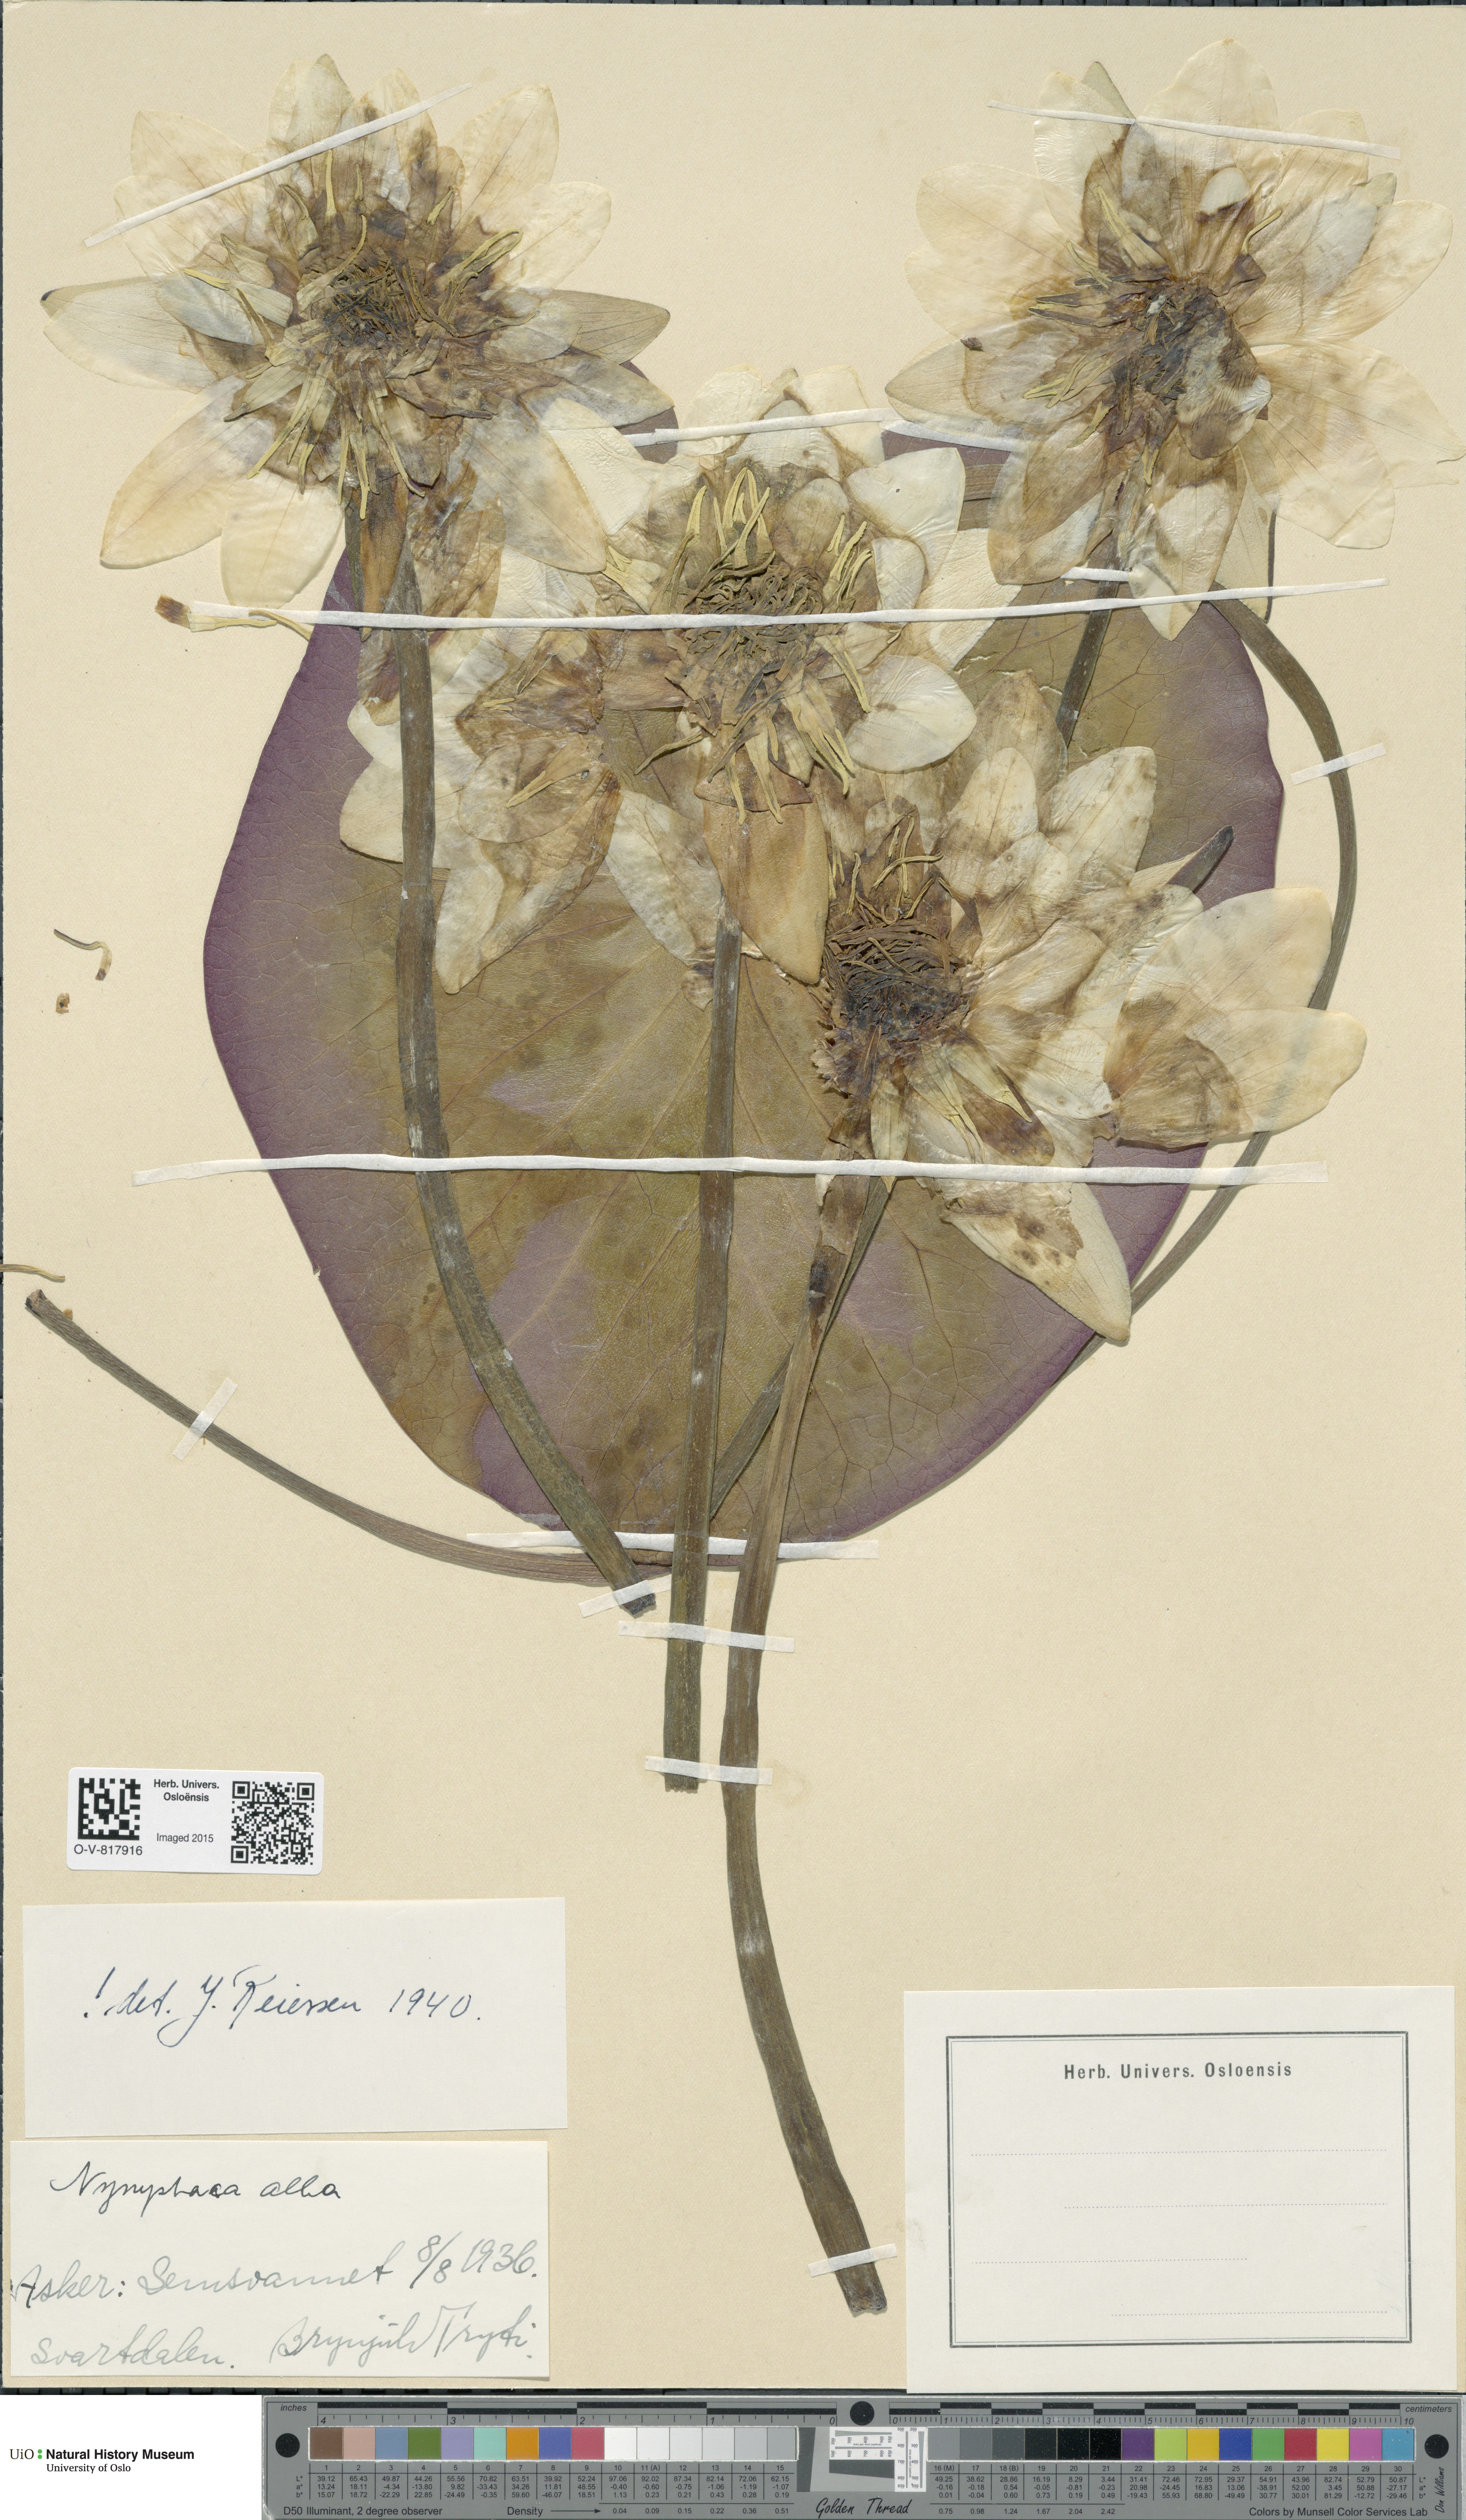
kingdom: Plantae
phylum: Tracheophyta
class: Magnoliopsida
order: Nymphaeales
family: Nymphaeaceae
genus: Nymphaea
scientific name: Nymphaea alba
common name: White water-lily
